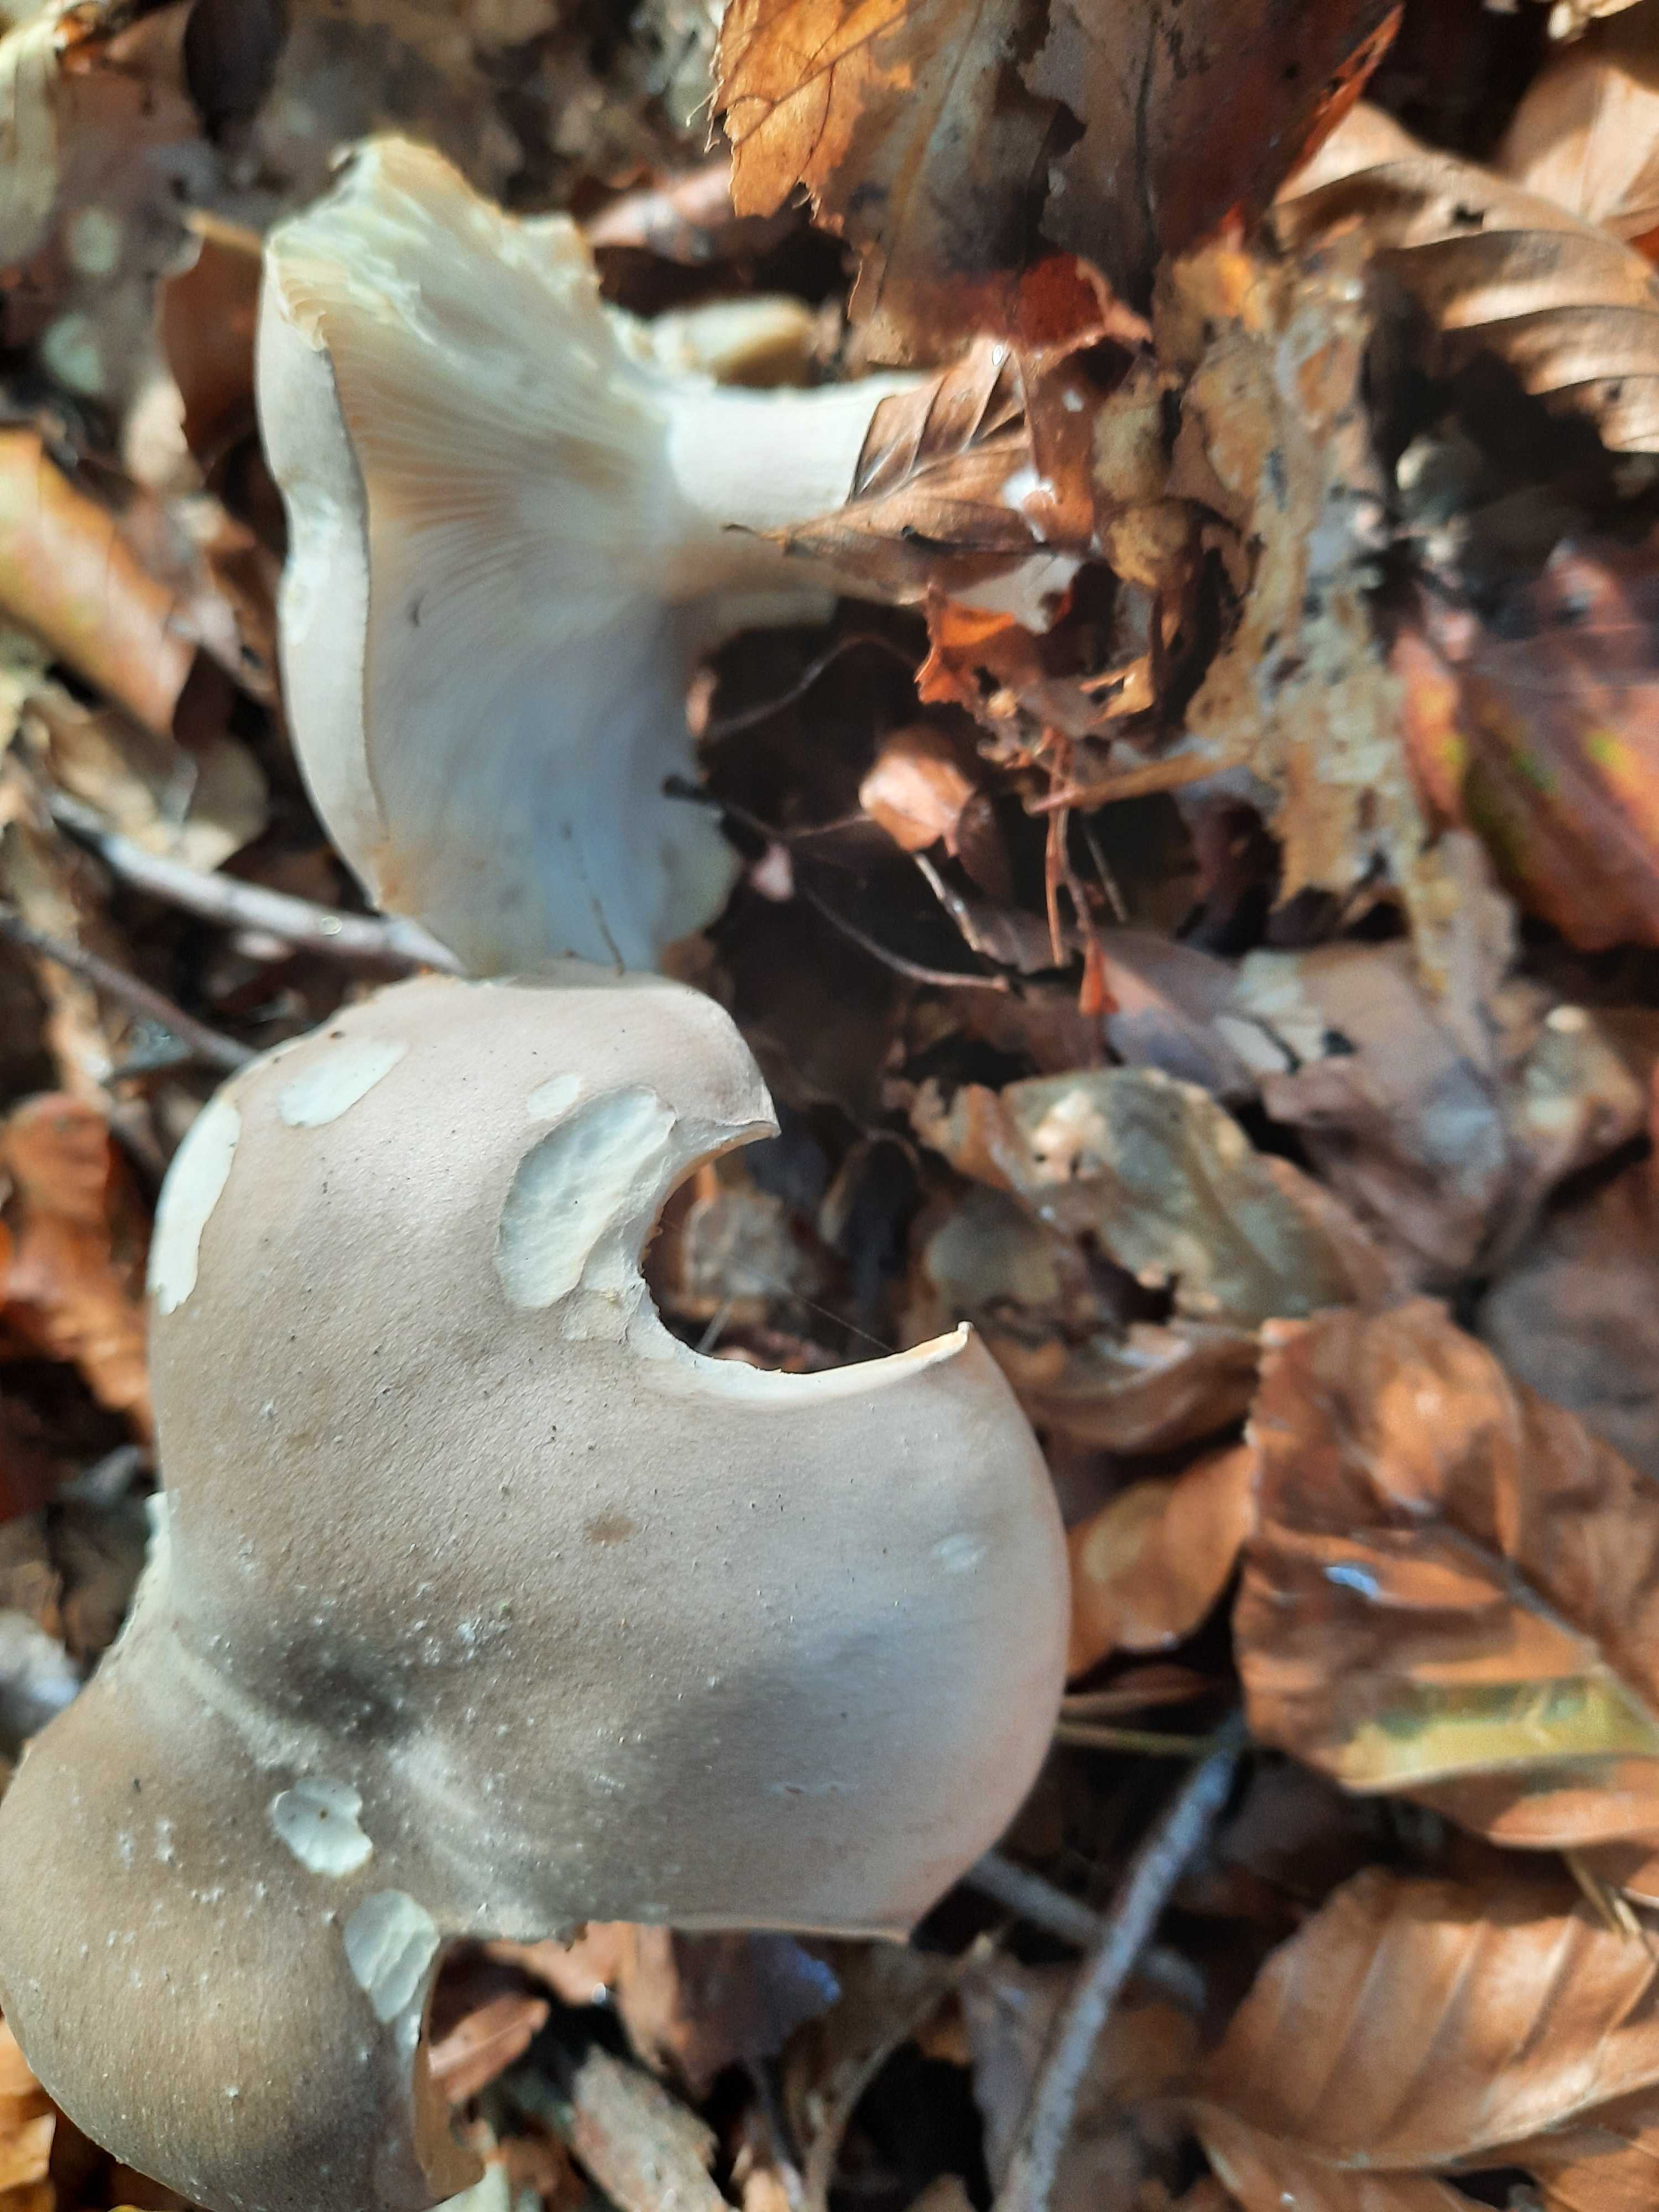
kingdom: Fungi
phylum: Basidiomycota
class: Agaricomycetes
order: Agaricales
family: Tricholomataceae
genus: Clitocybe
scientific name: Clitocybe nebularis
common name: tåge-tragthat
